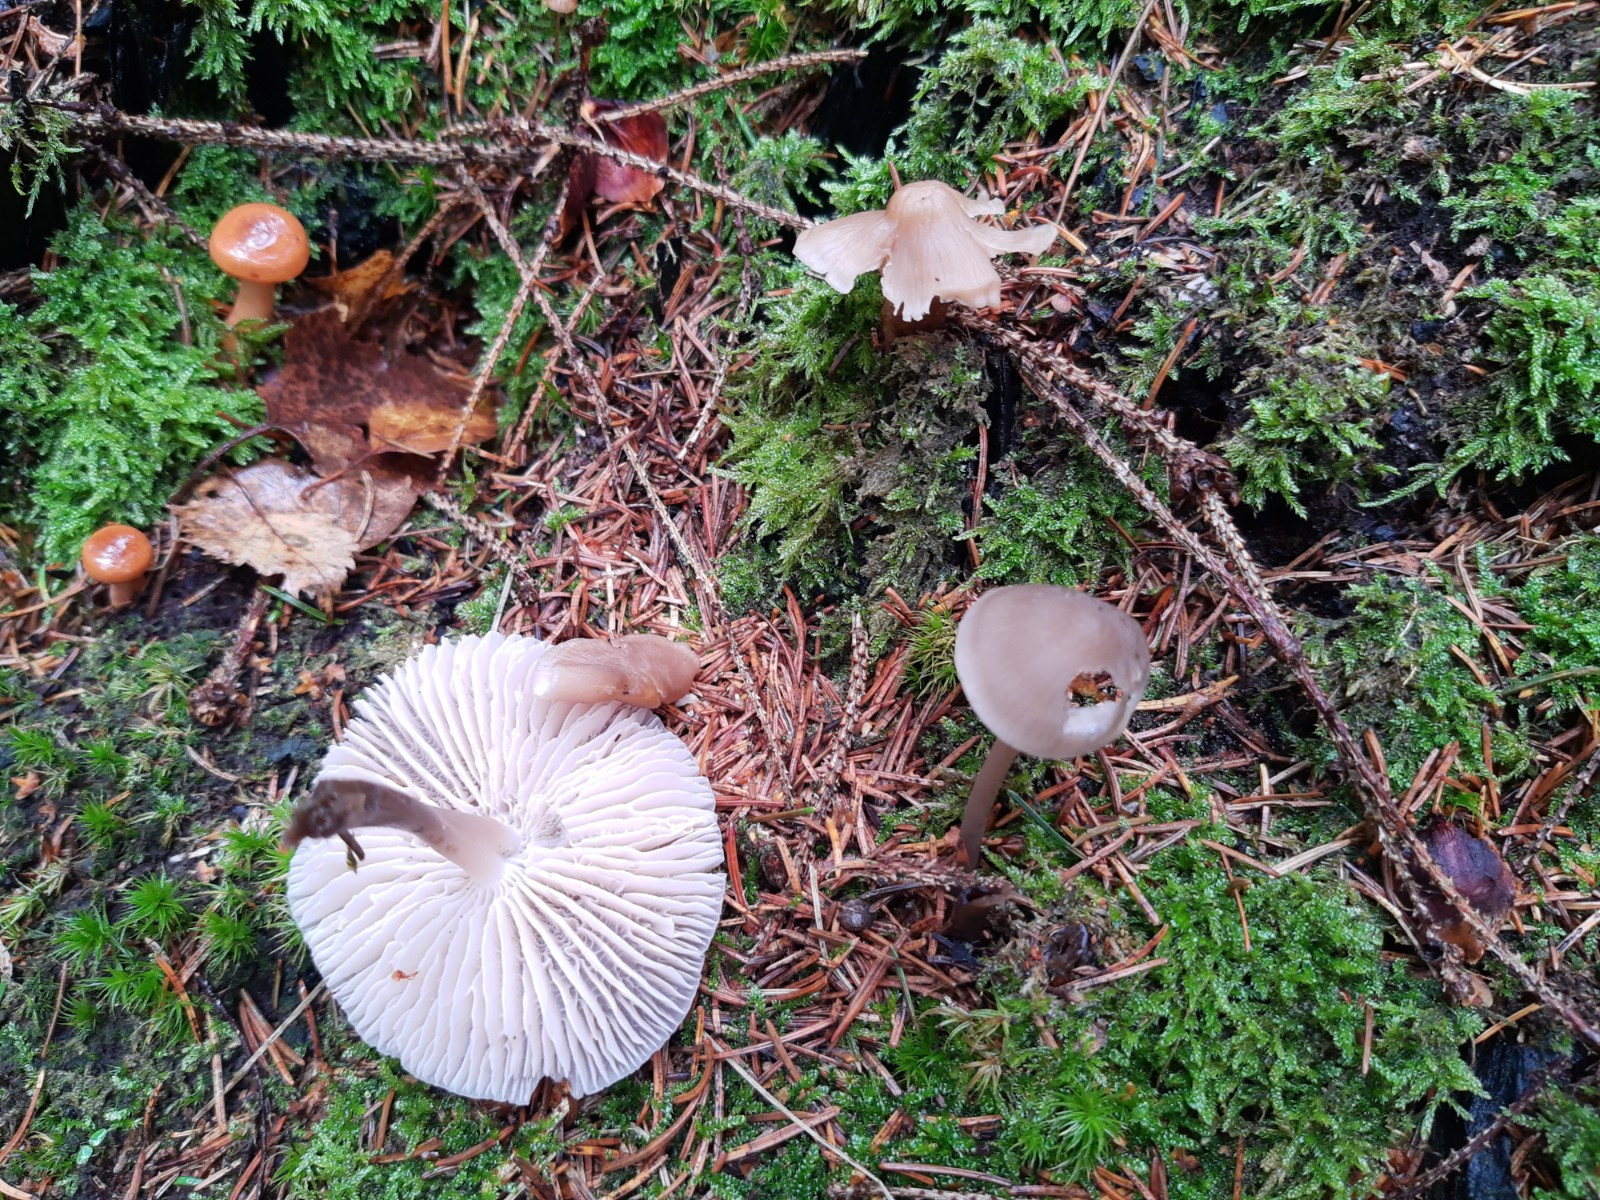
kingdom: Fungi
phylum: Basidiomycota
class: Agaricomycetes
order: Agaricales
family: Mycenaceae
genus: Mycena
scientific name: Mycena galericulata
